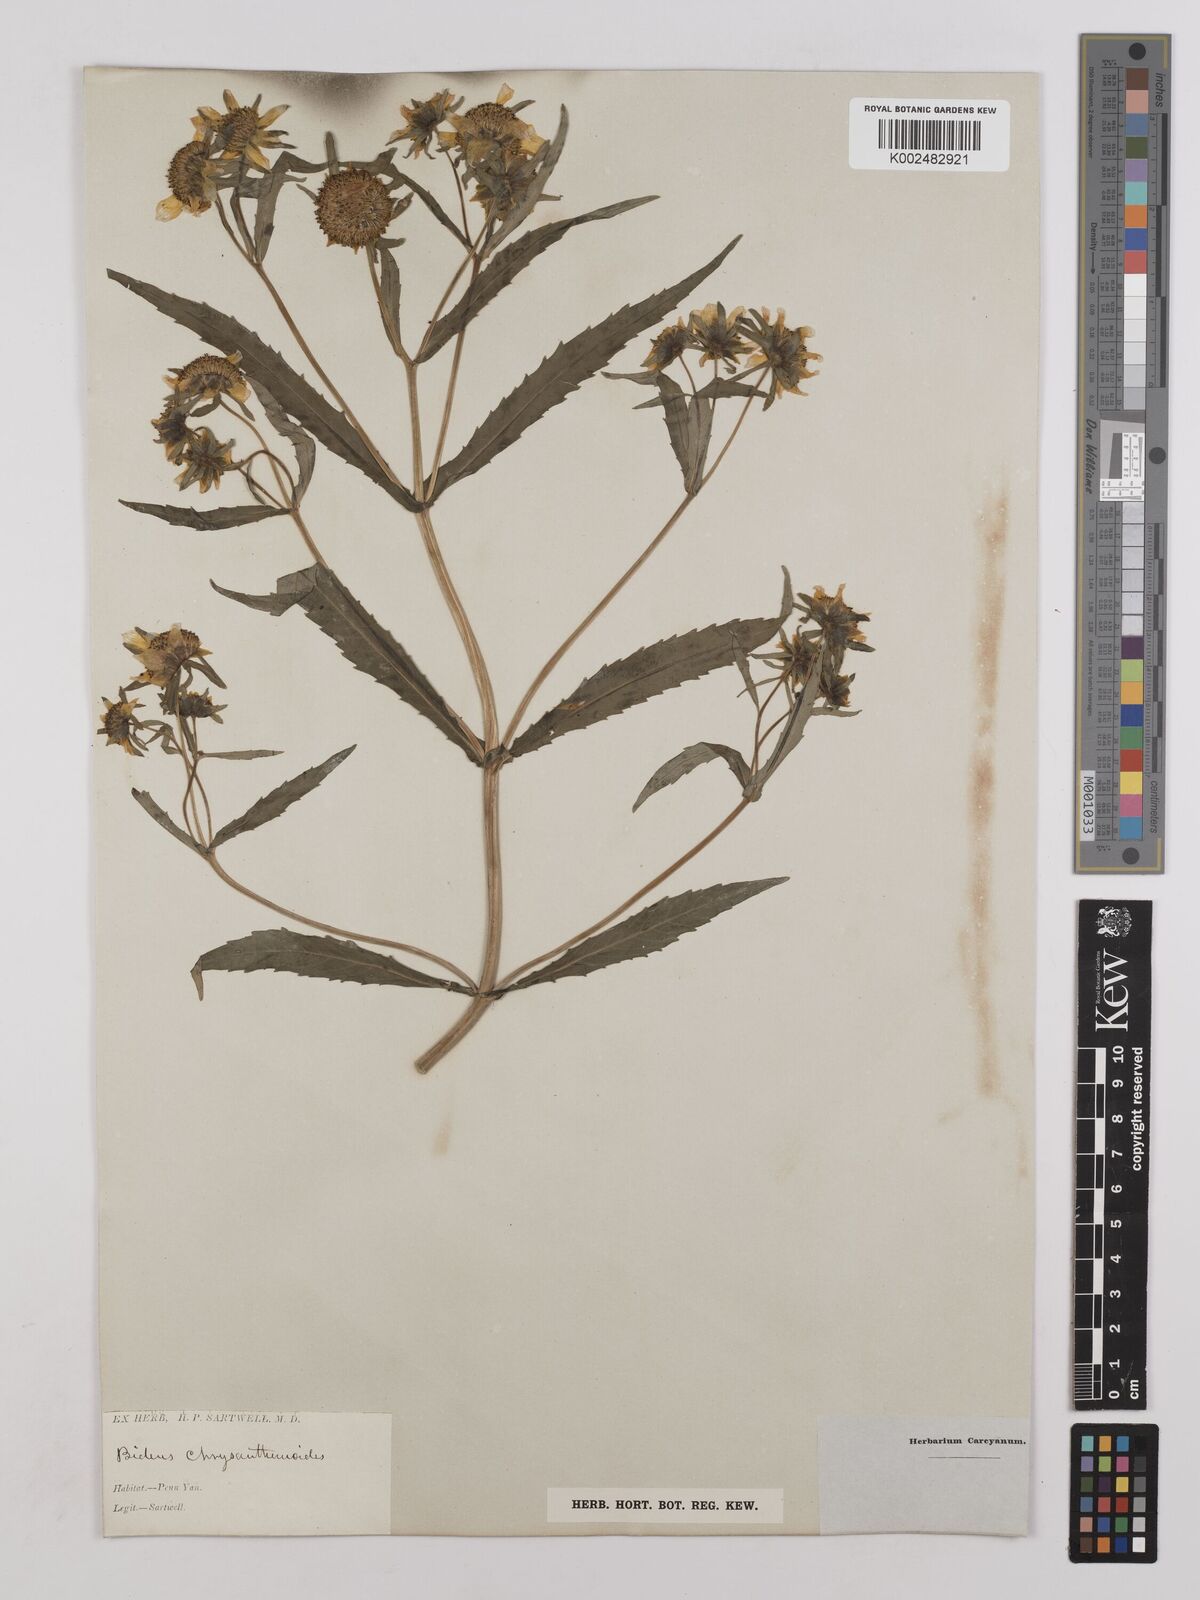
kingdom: Plantae
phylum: Tracheophyta
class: Magnoliopsida
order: Asterales
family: Asteraceae
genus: Bidens
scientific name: Bidens
